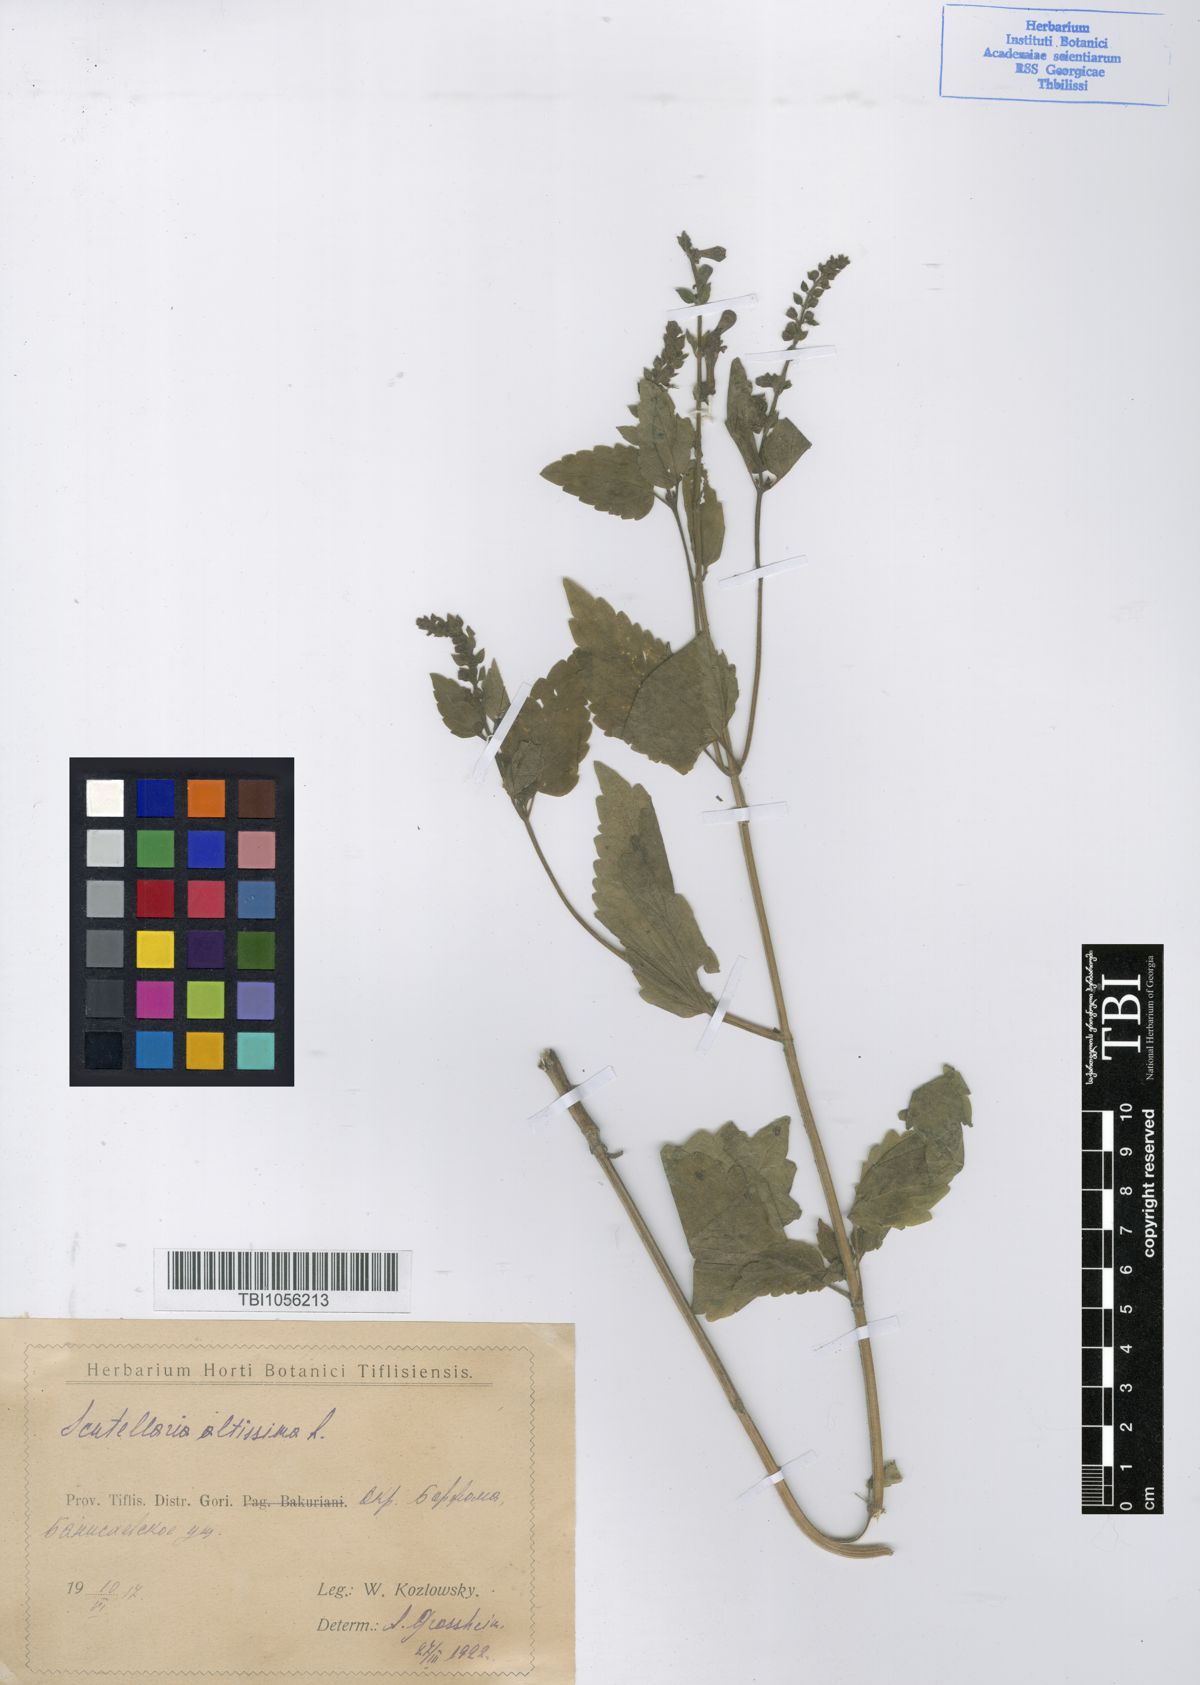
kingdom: Plantae
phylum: Tracheophyta
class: Magnoliopsida
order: Lamiales
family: Lamiaceae
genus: Scutellaria
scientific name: Scutellaria altissima
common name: Somerset skullcap
